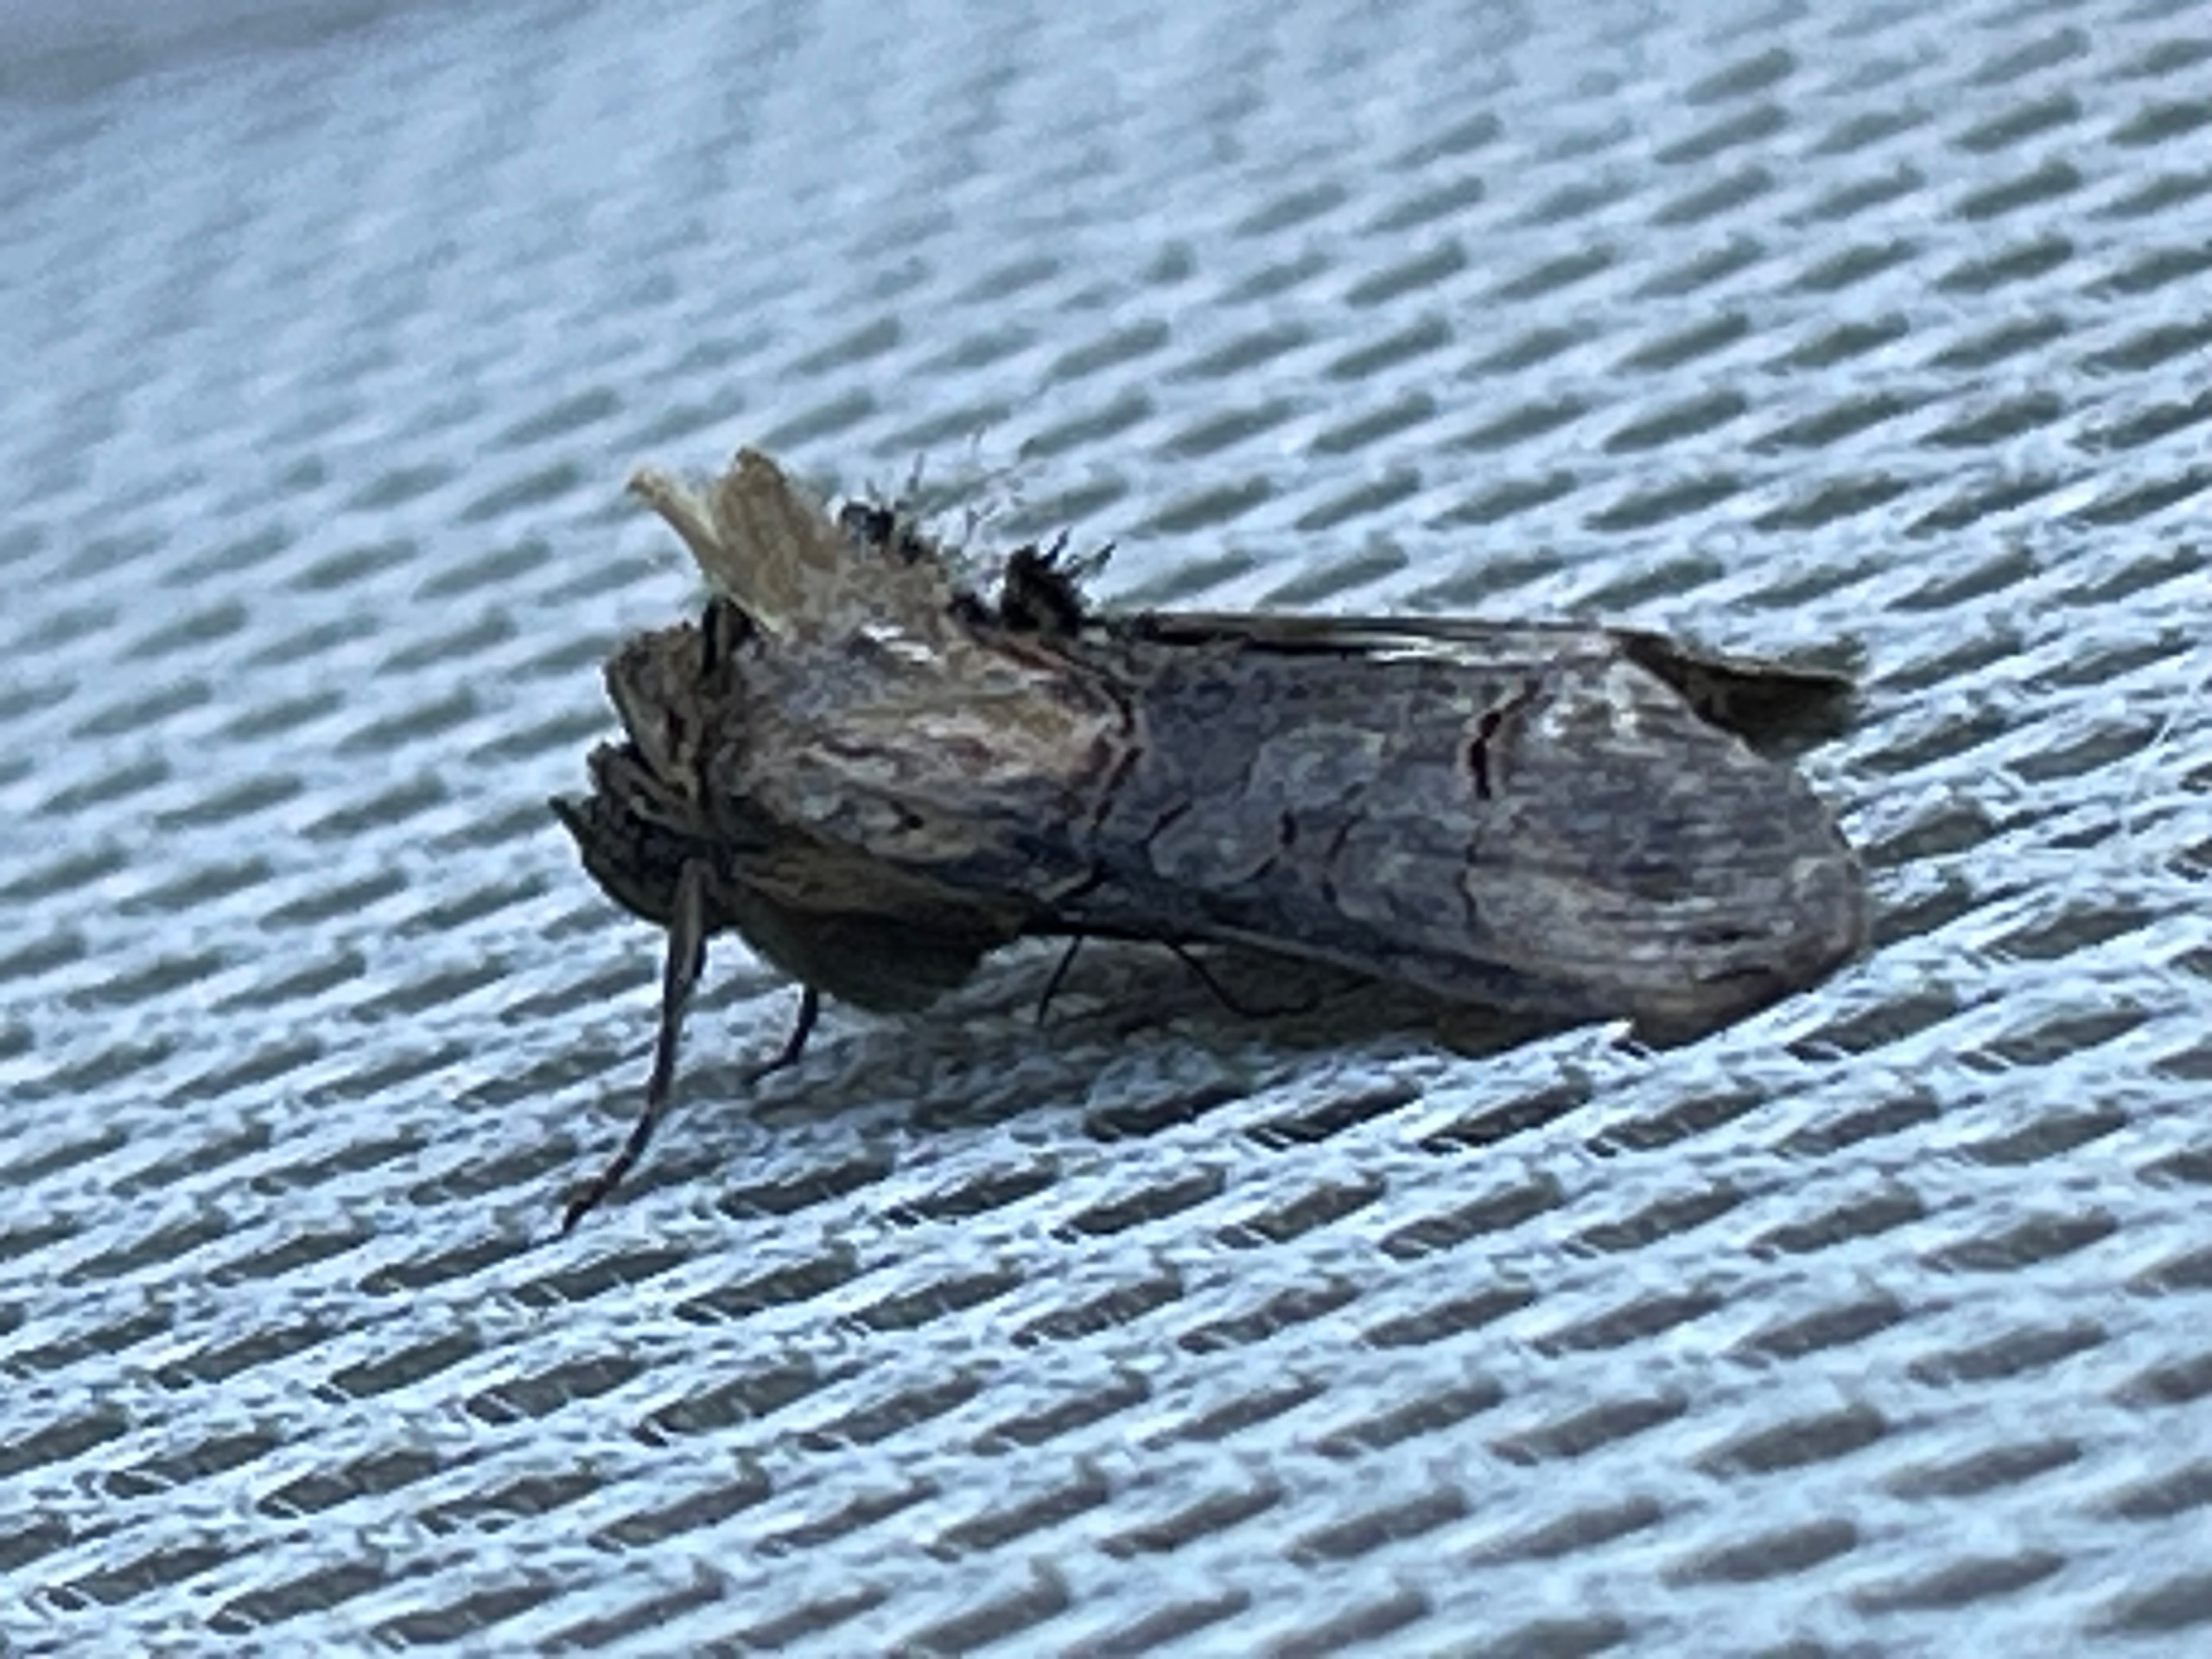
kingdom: Animalia
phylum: Arthropoda
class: Insecta
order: Lepidoptera
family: Noctuidae
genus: Abrostola
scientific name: Abrostola triplasia
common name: Brun nælde-brilleugle
